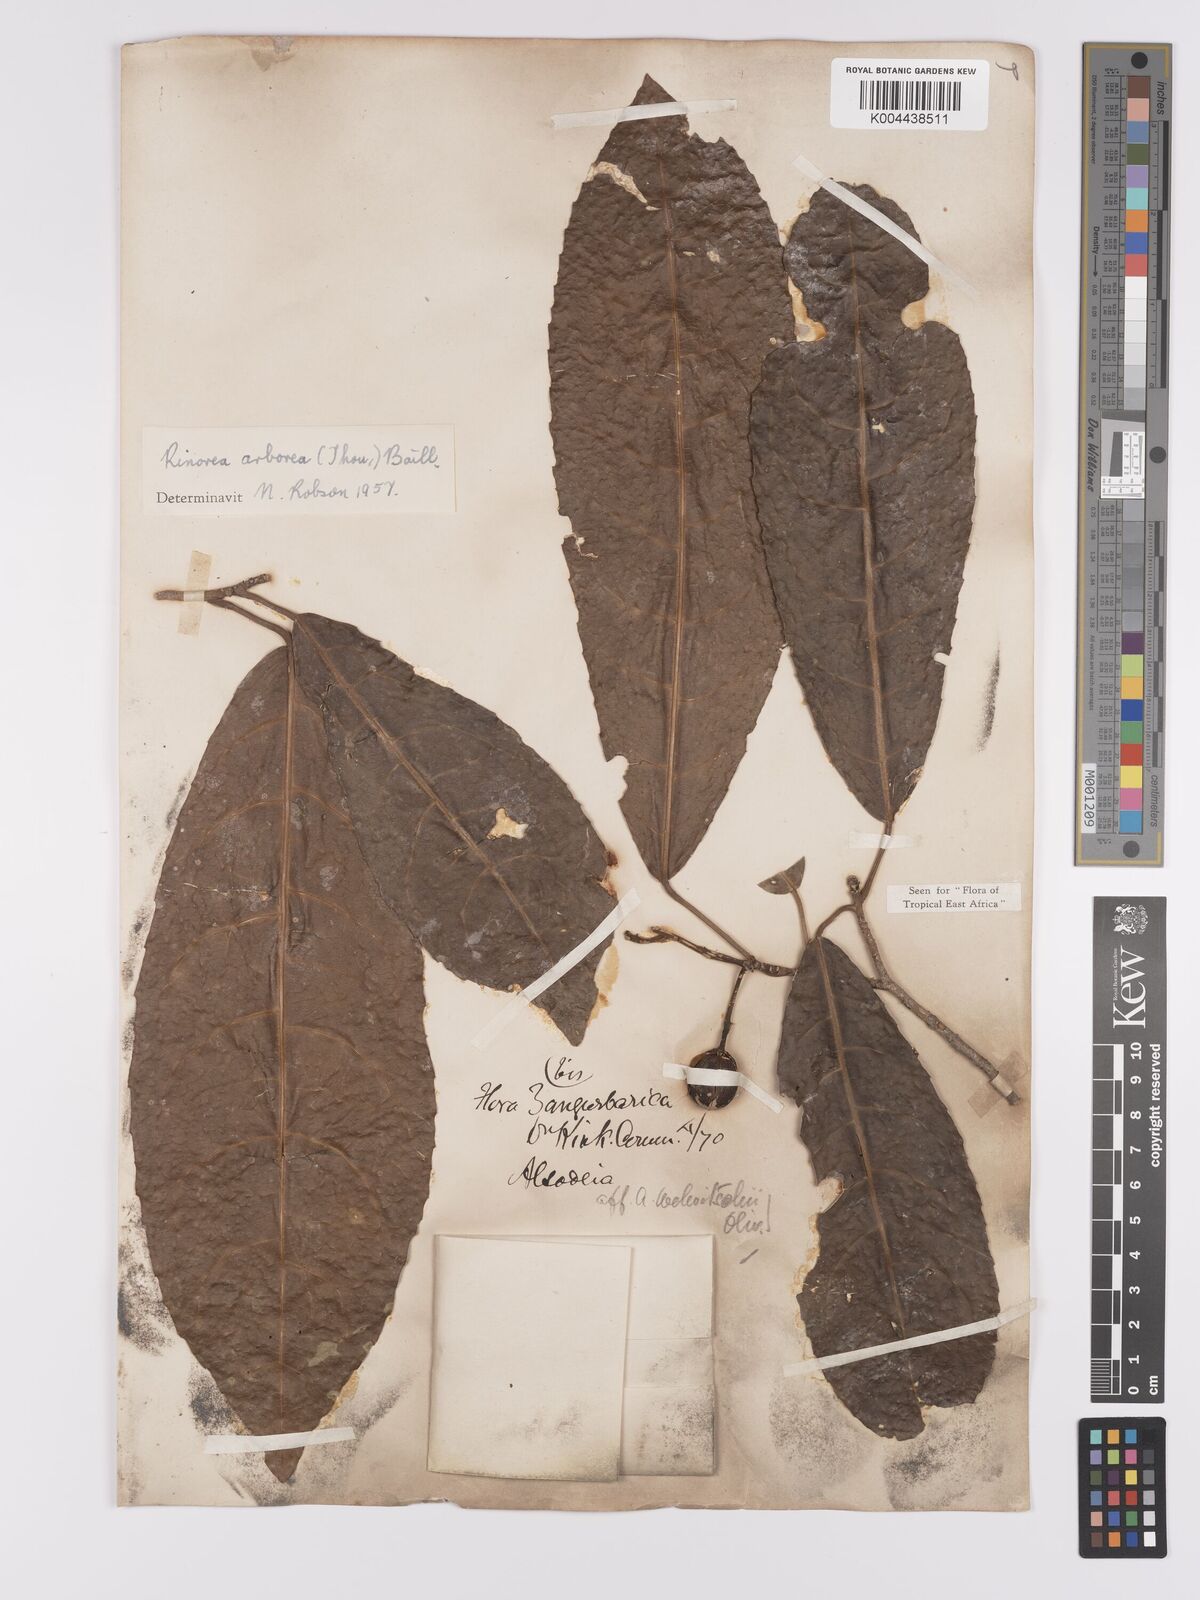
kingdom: Plantae
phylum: Tracheophyta
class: Magnoliopsida
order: Malpighiales
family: Violaceae
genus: Rinorea
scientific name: Rinorea arborea
